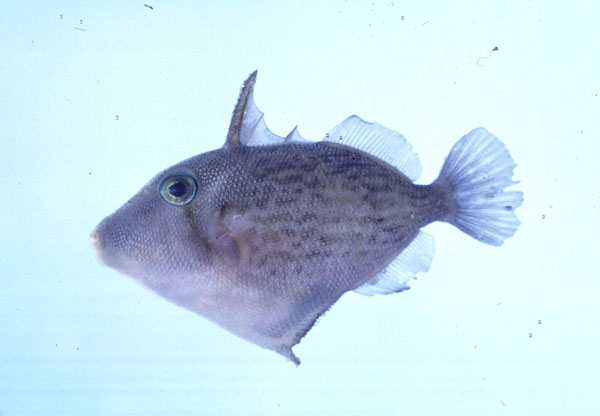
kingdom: Animalia
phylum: Chordata
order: Tetraodontiformes
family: Balistidae
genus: Sufflamen
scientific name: Sufflamen bursa
